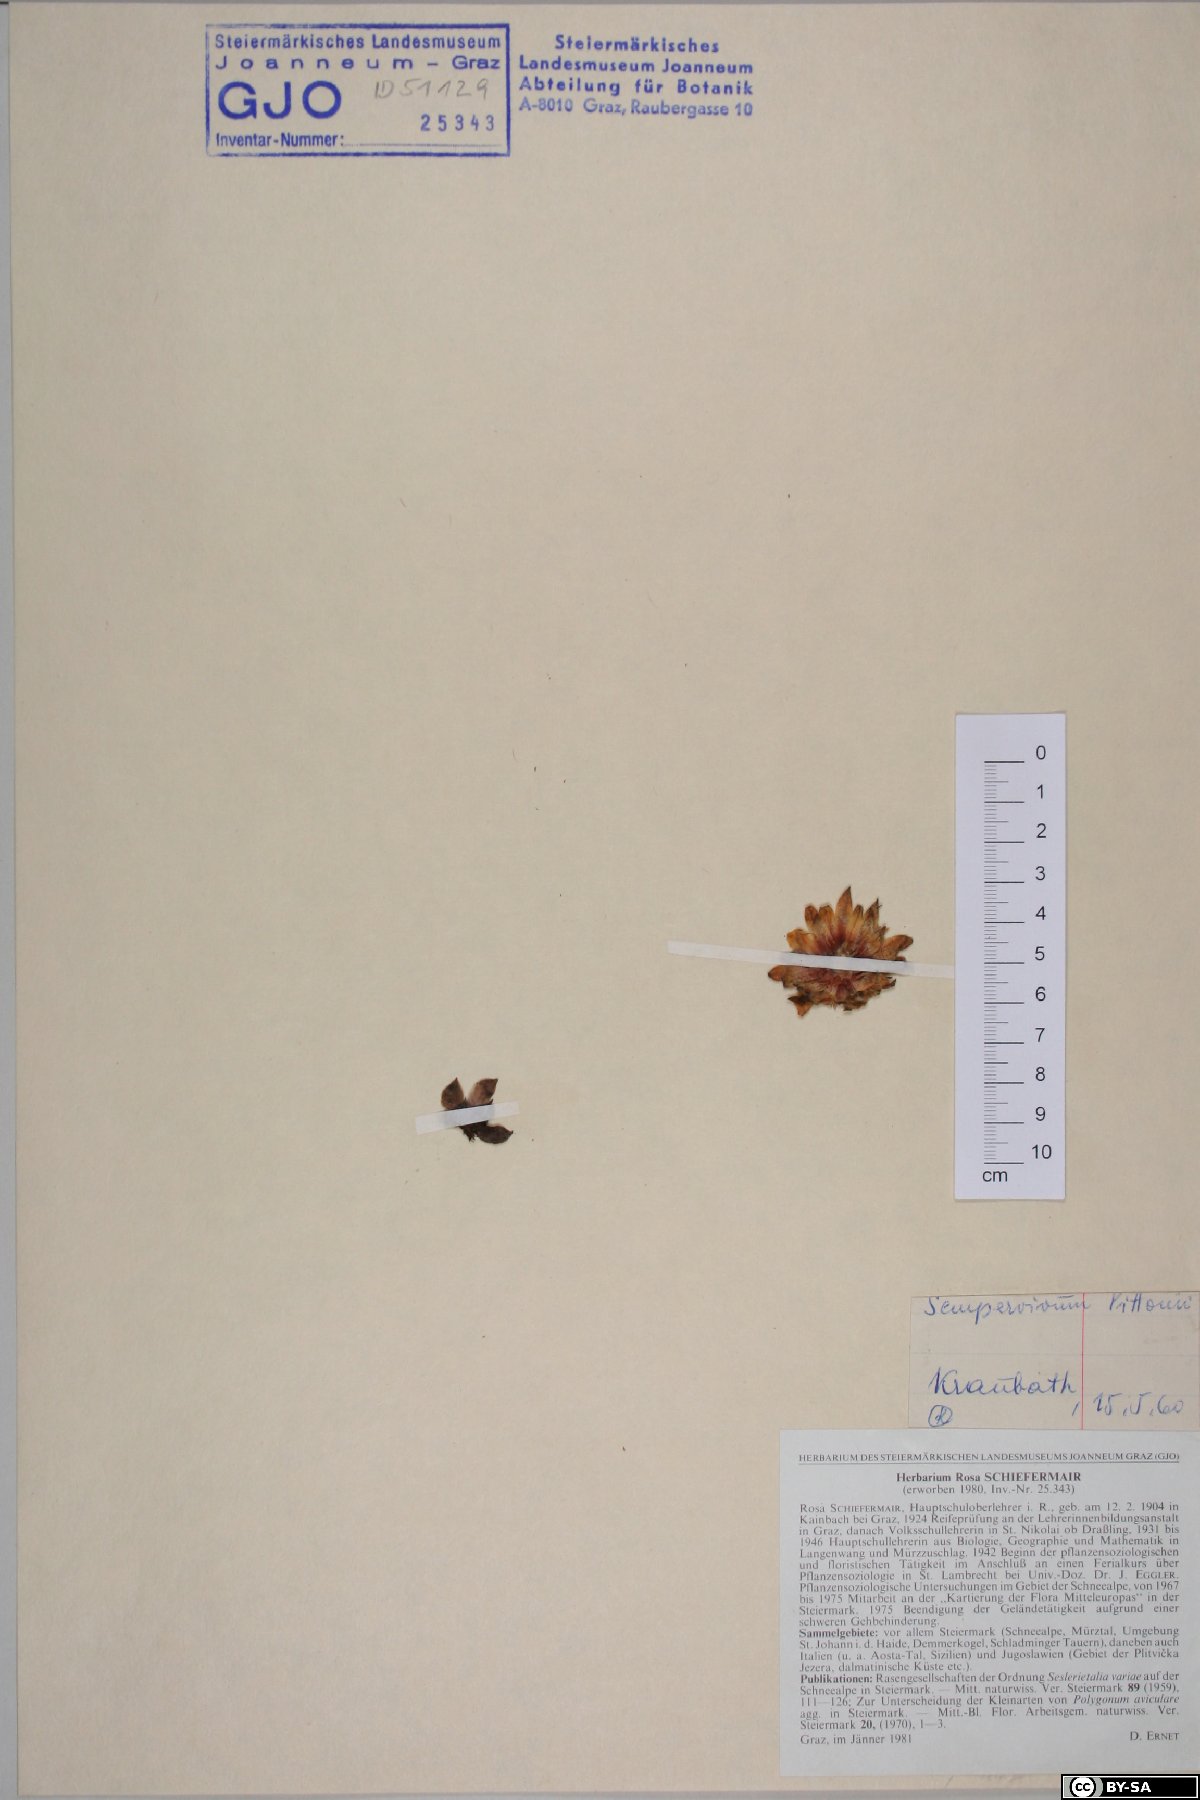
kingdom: Plantae
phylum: Tracheophyta
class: Magnoliopsida
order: Saxifragales
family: Crassulaceae
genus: Sempervivum
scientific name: Sempervivum pittonii
